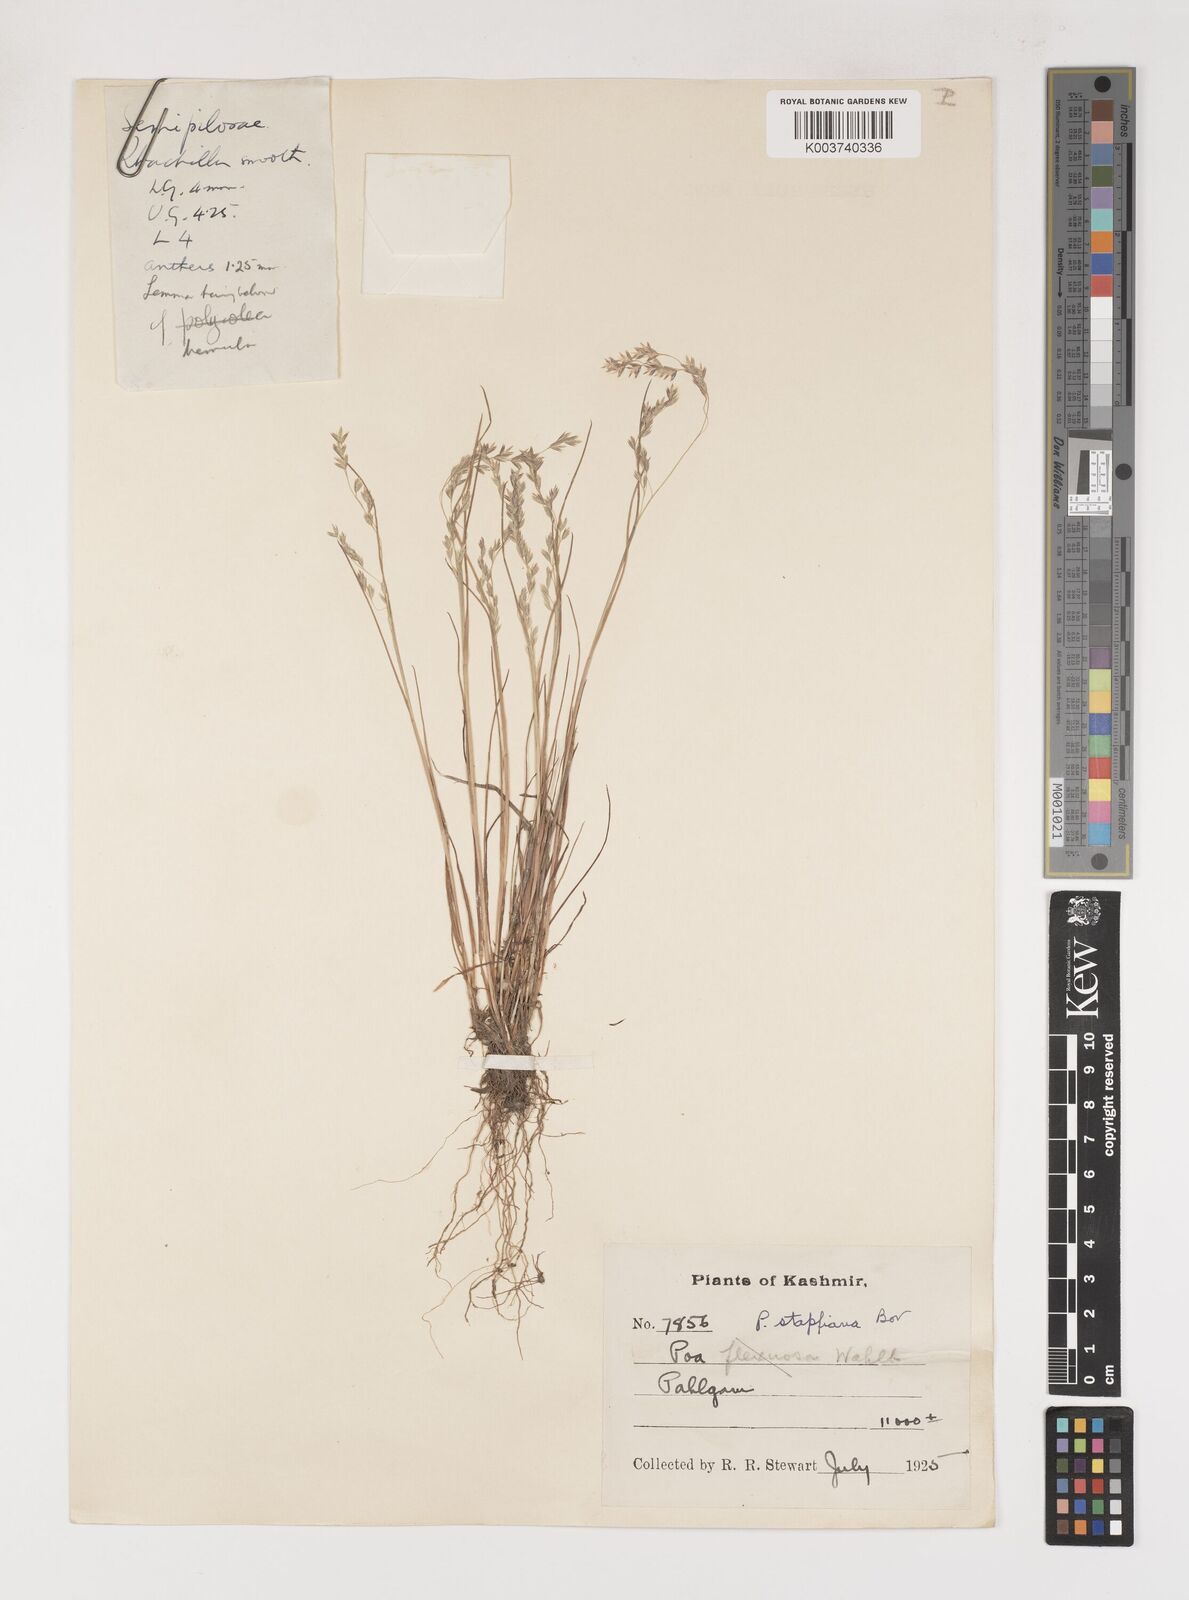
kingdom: Plantae
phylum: Tracheophyta
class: Liliopsida
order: Poales
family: Poaceae
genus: Poa
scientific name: Poa stapfiana
